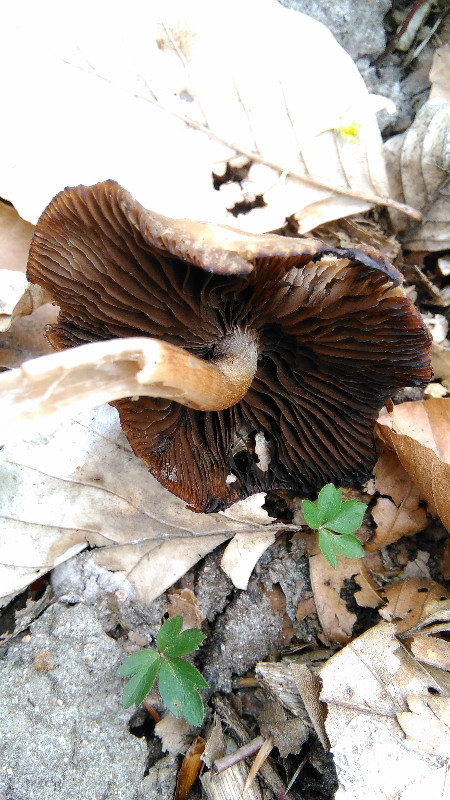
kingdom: Fungi
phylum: Basidiomycota
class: Agaricomycetes
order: Agaricales
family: Psathyrellaceae
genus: Psathyrella
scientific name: Psathyrella spadiceogrisea
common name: gråbrun mørkhat
